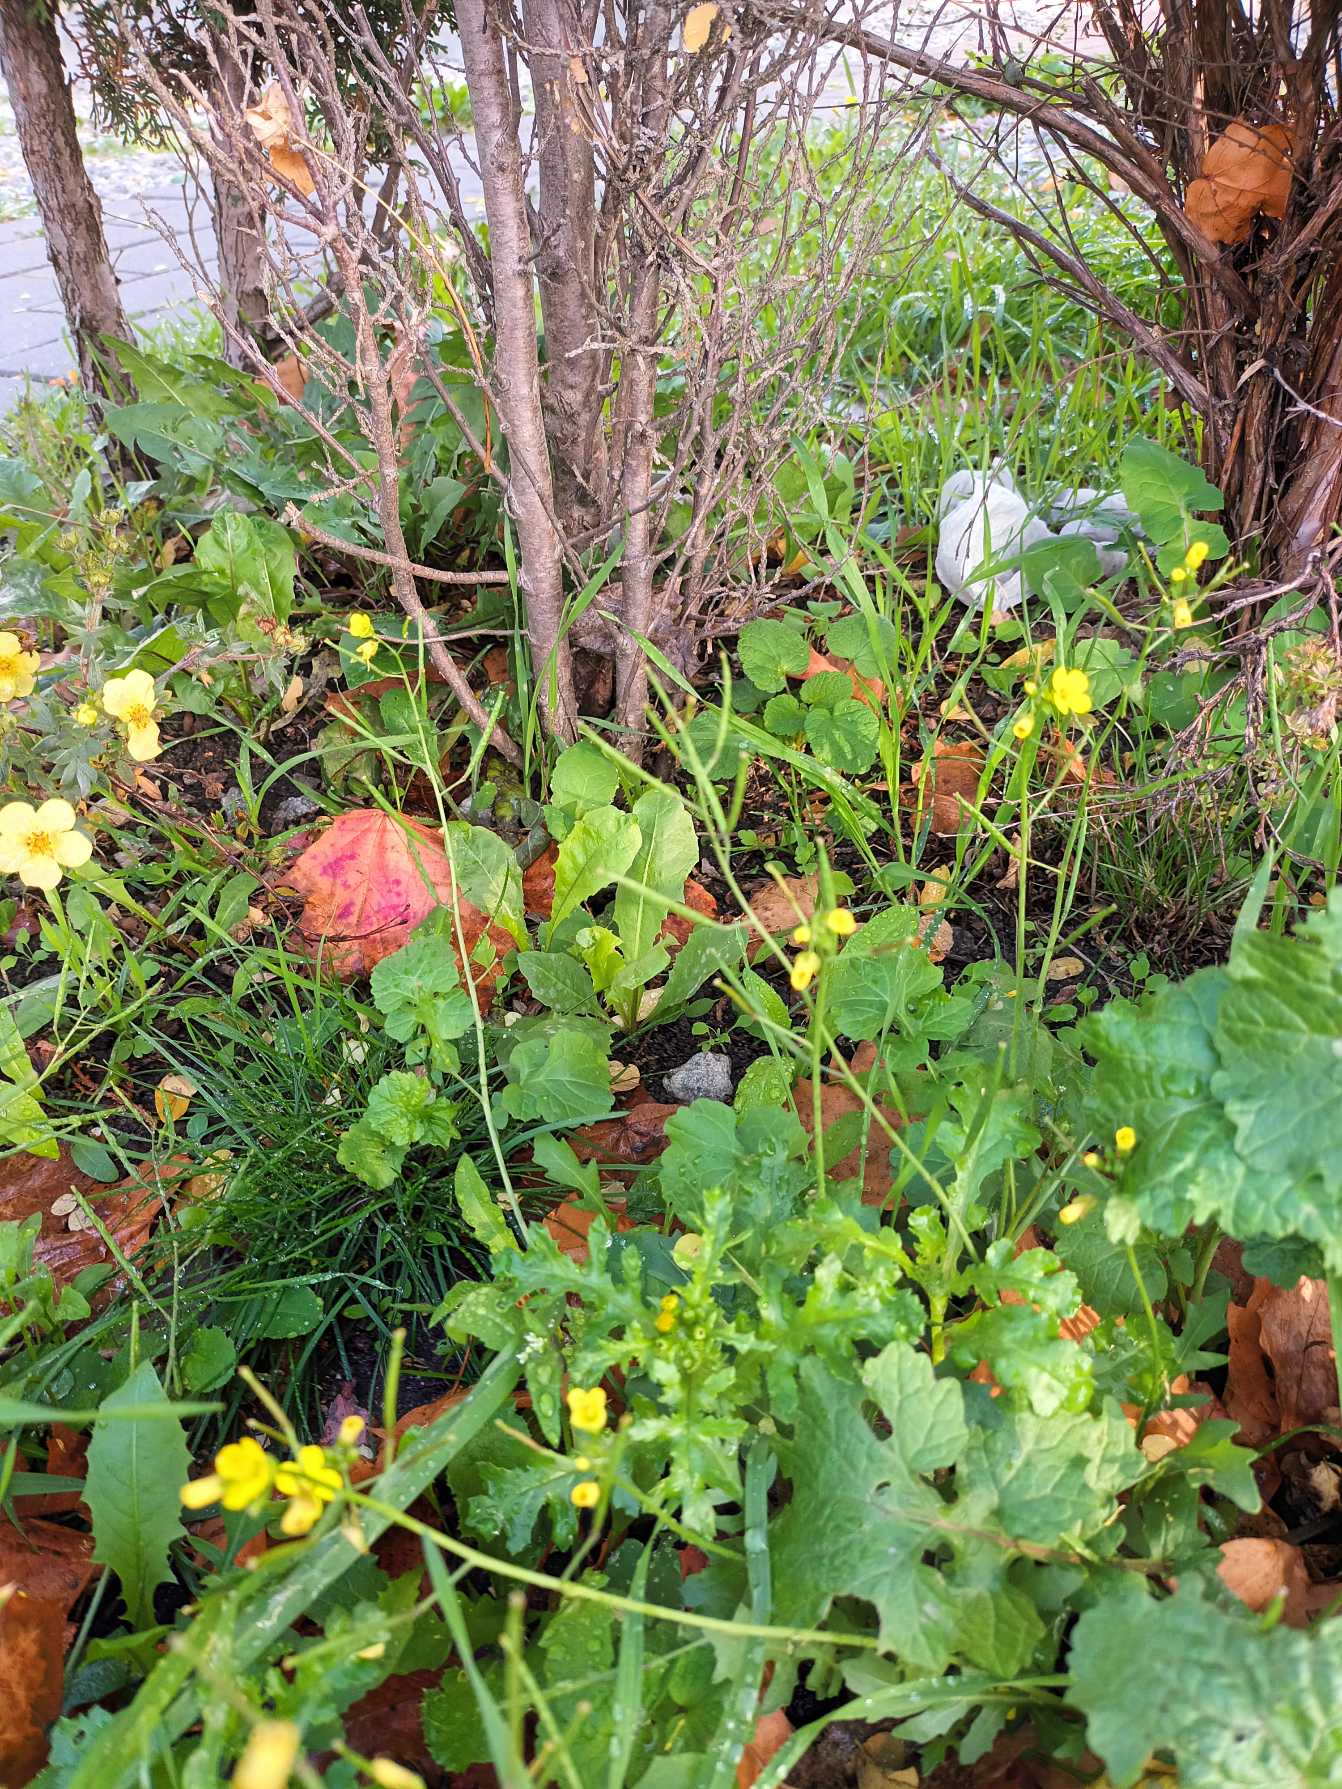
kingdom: Plantae
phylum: Tracheophyta
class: Magnoliopsida
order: Brassicales
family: Brassicaceae
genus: Diplotaxis
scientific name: Diplotaxis muralis
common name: Mursennep
